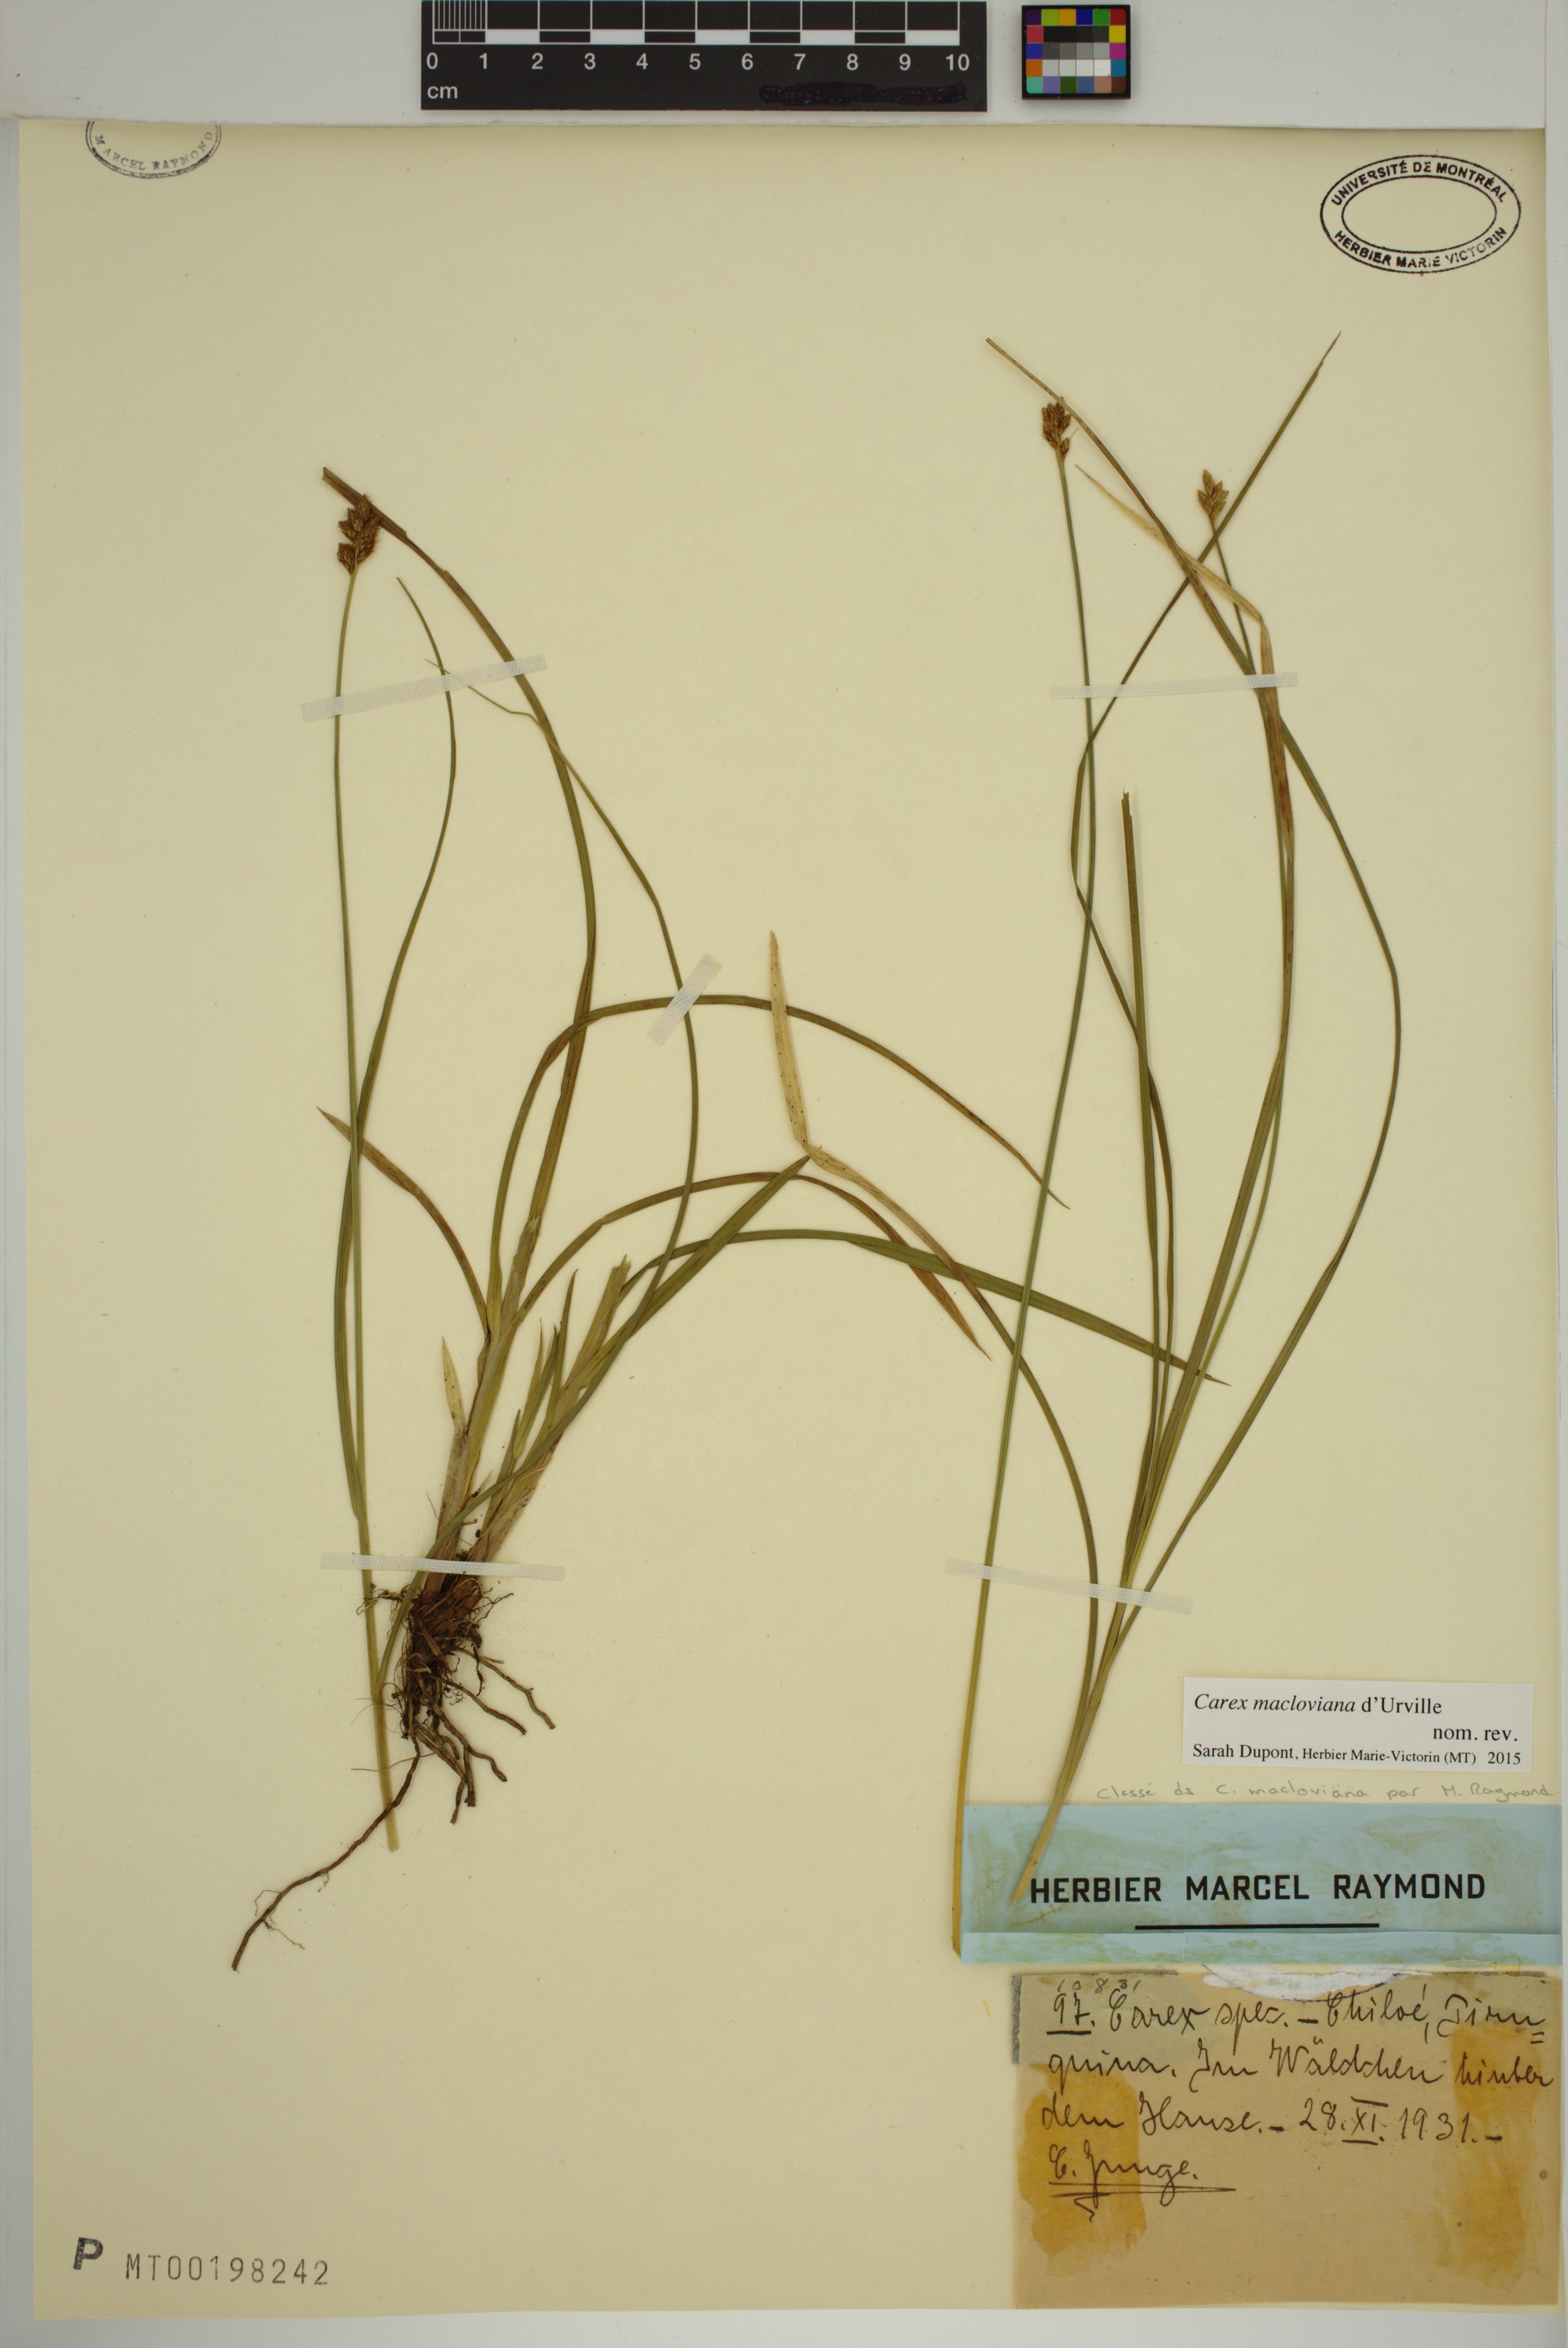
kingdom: Plantae
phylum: Tracheophyta
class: Liliopsida
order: Poales
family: Cyperaceae
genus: Carex
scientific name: Carex macloviana
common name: Falkland island sedge
